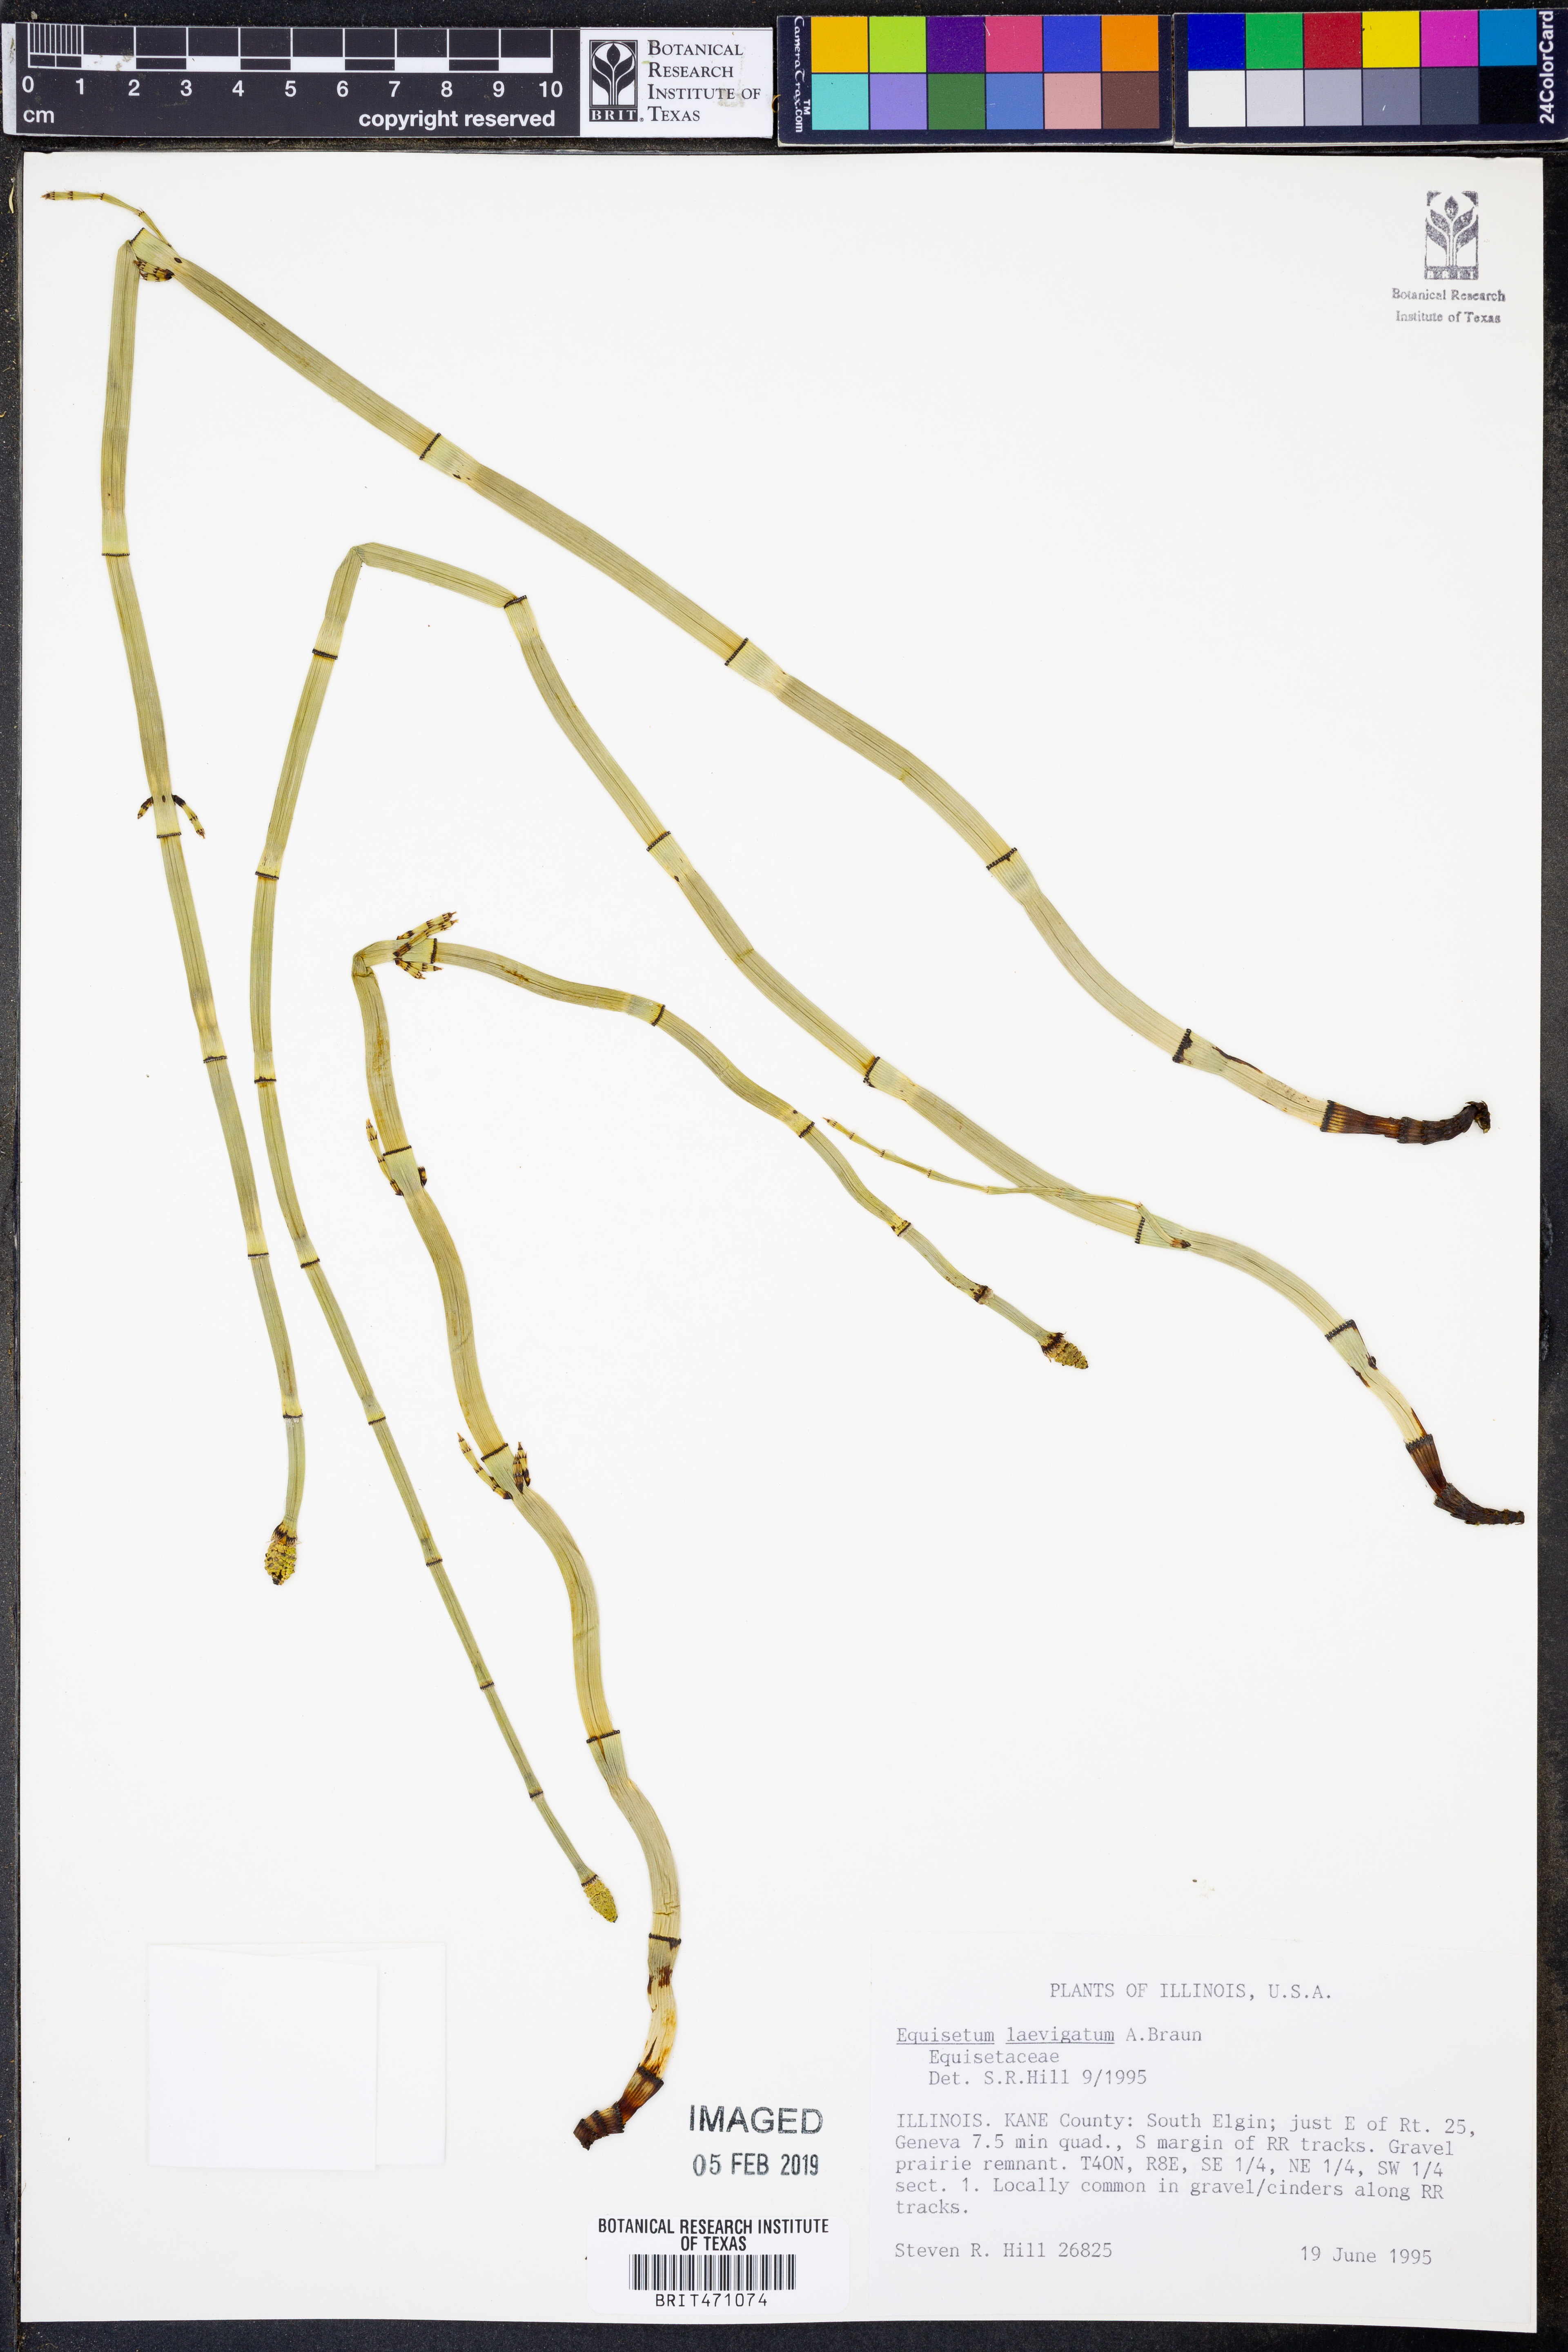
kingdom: Plantae
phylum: Tracheophyta
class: Polypodiopsida
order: Equisetales
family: Equisetaceae
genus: Equisetum
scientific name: Equisetum laevigatum
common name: Smooth scouring-rush
